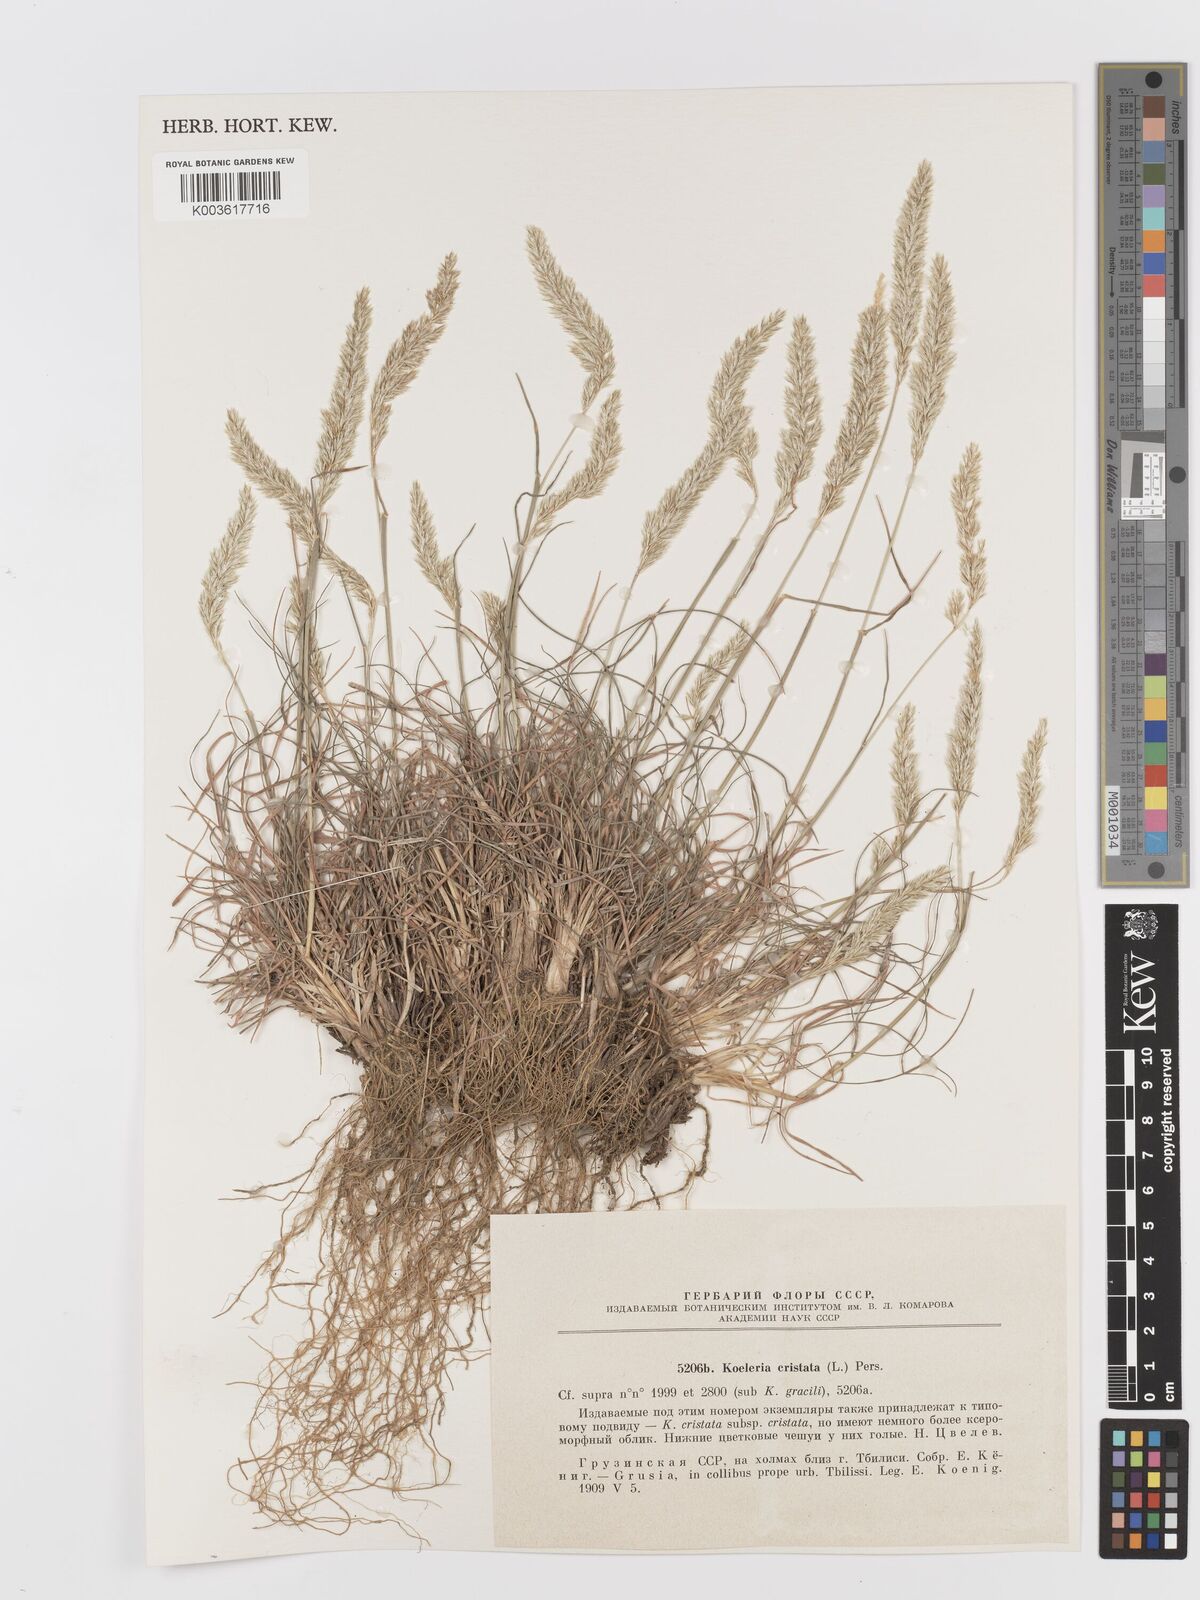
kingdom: Plantae
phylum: Tracheophyta
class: Liliopsida
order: Poales
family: Poaceae
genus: Koeleria
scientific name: Koeleria macrantha
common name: Crested hair-grass
